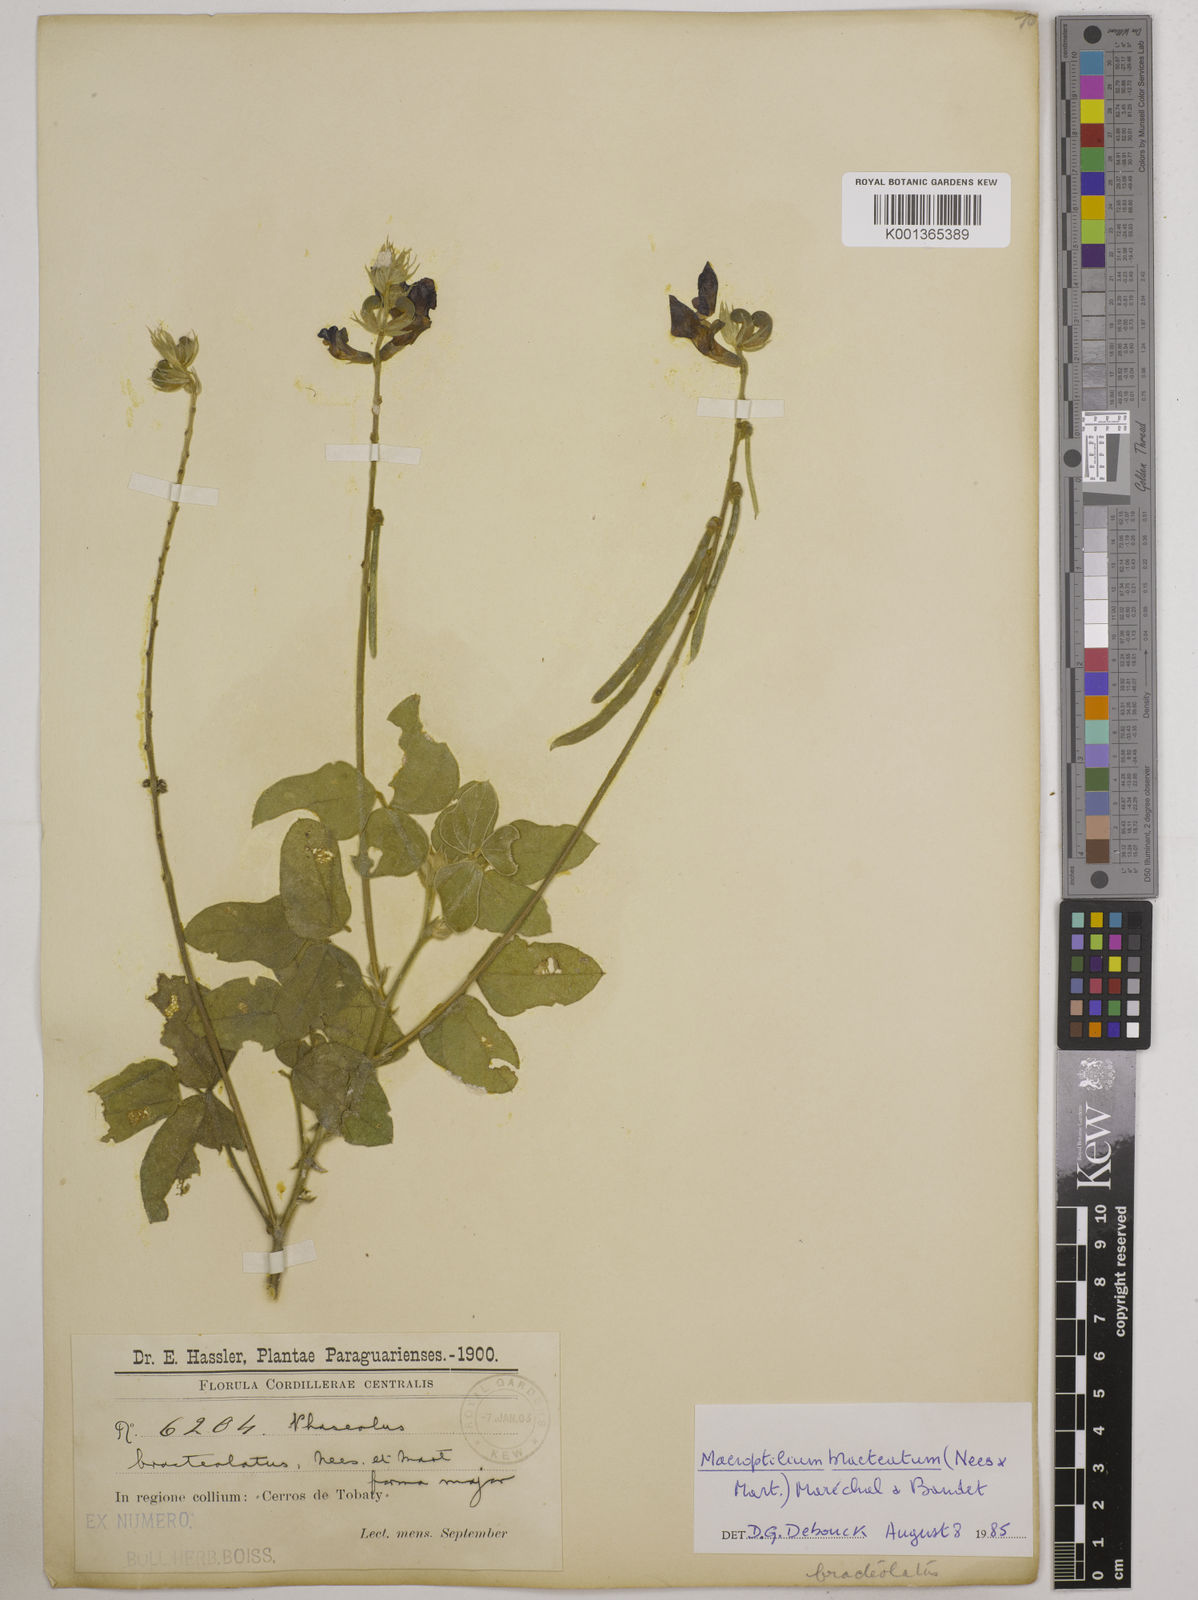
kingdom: Plantae
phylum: Tracheophyta
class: Magnoliopsida
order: Fabales
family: Fabaceae
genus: Macroptilium
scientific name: Macroptilium bracteatum
